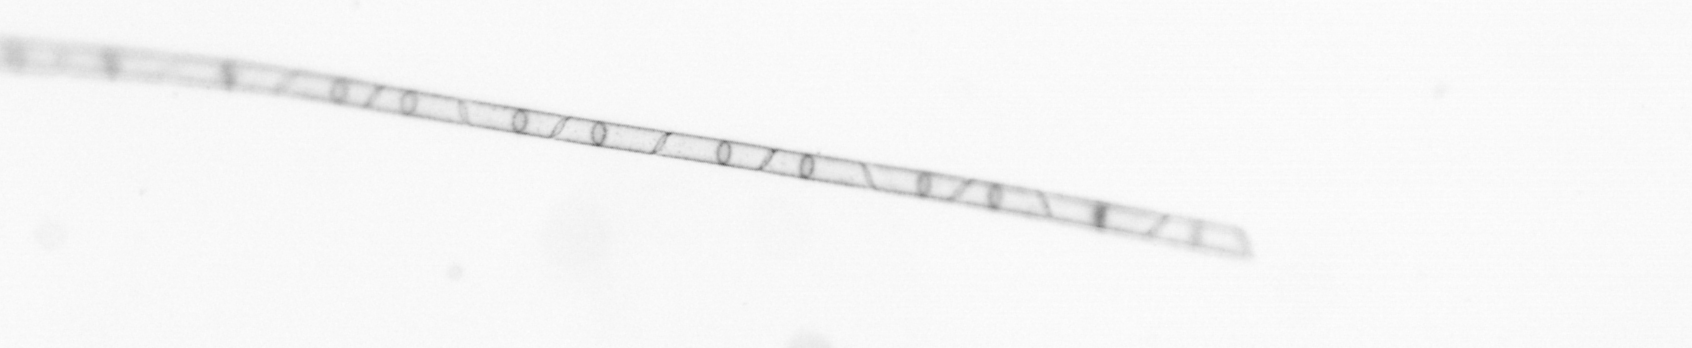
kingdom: Chromista
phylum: Ochrophyta
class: Bacillariophyceae
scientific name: Bacillariophyceae
